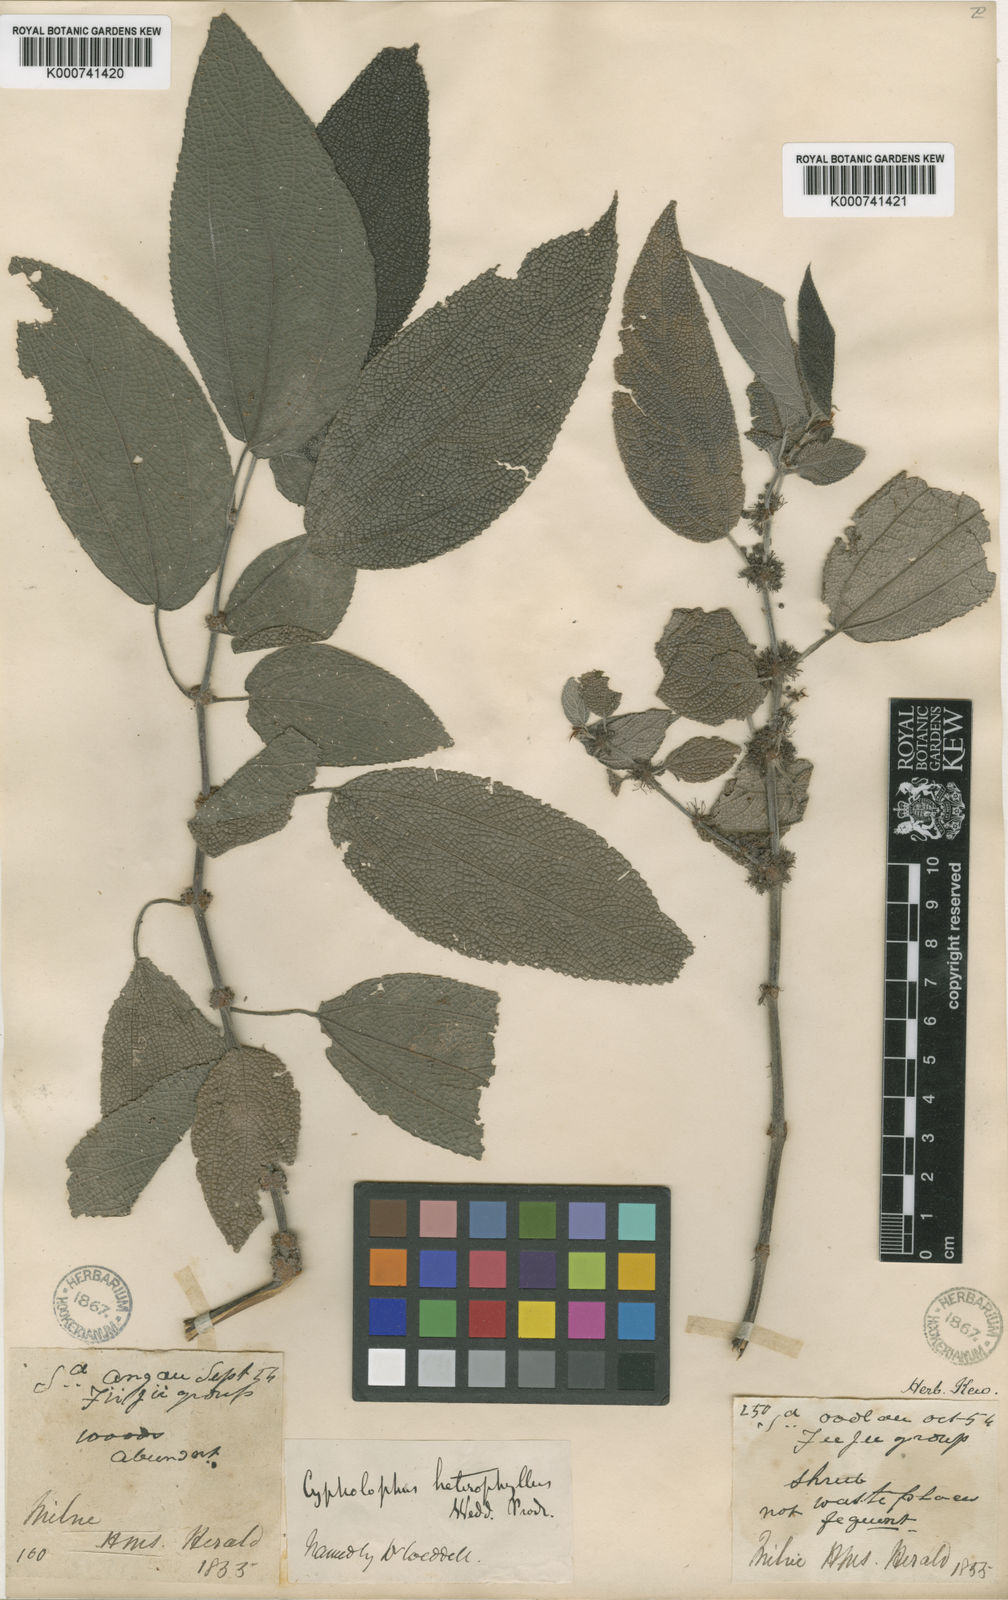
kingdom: Plantae
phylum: Tracheophyta
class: Magnoliopsida
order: Rosales
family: Urticaceae
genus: Cypholophus
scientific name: Cypholophus macrocephalus
